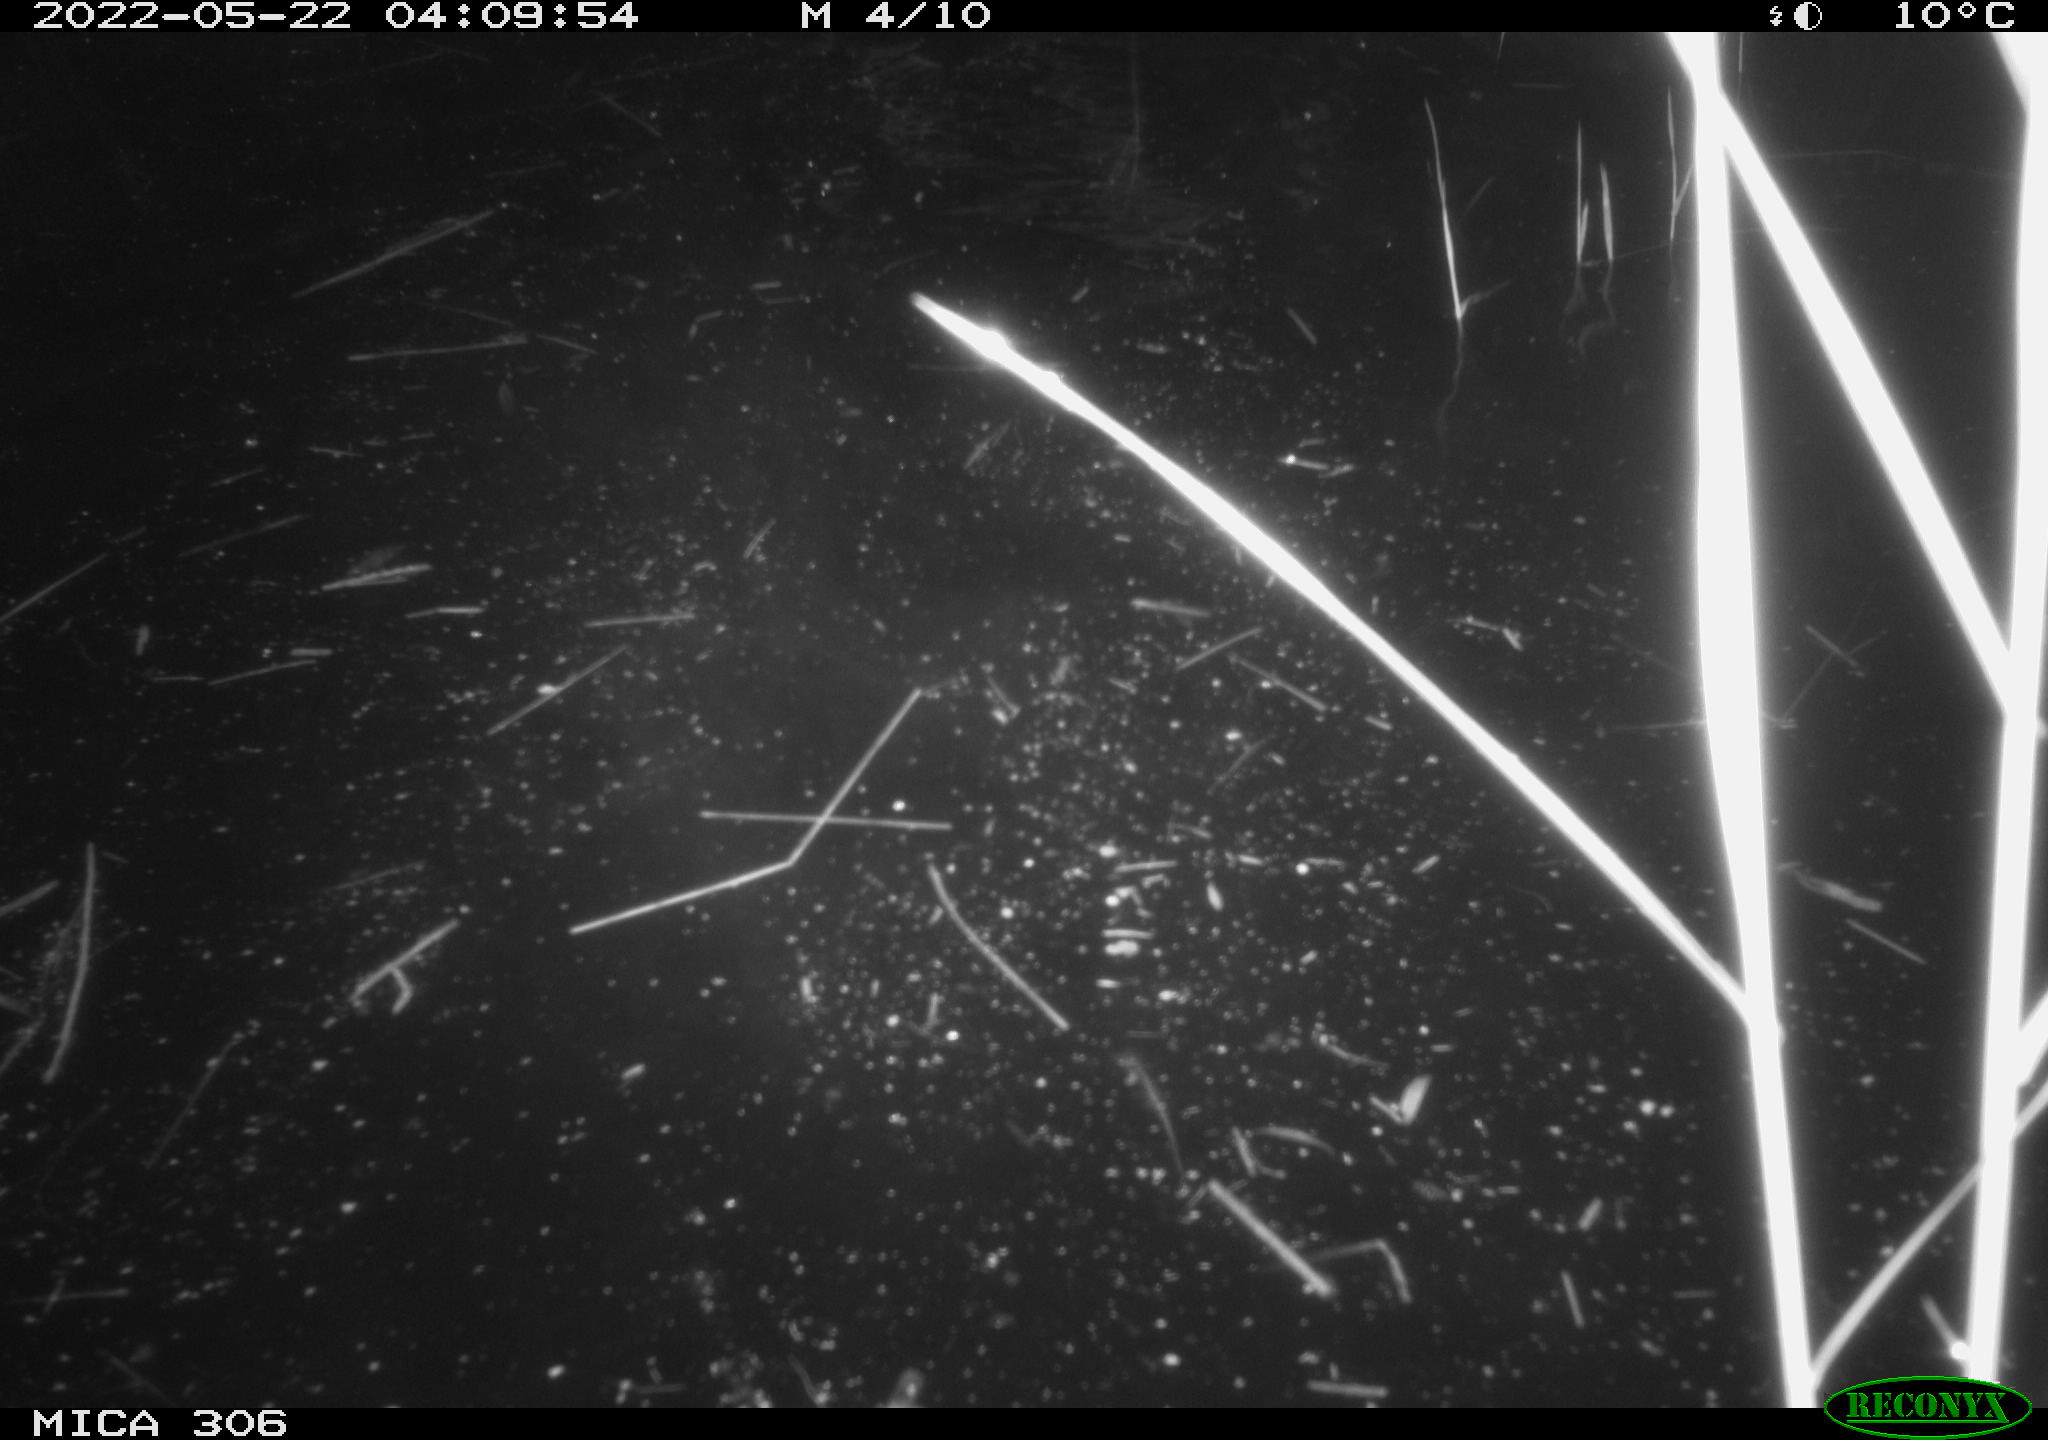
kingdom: Animalia
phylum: Chordata
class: Mammalia
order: Rodentia
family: Cricetidae
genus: Ondatra
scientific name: Ondatra zibethicus
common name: Muskrat
